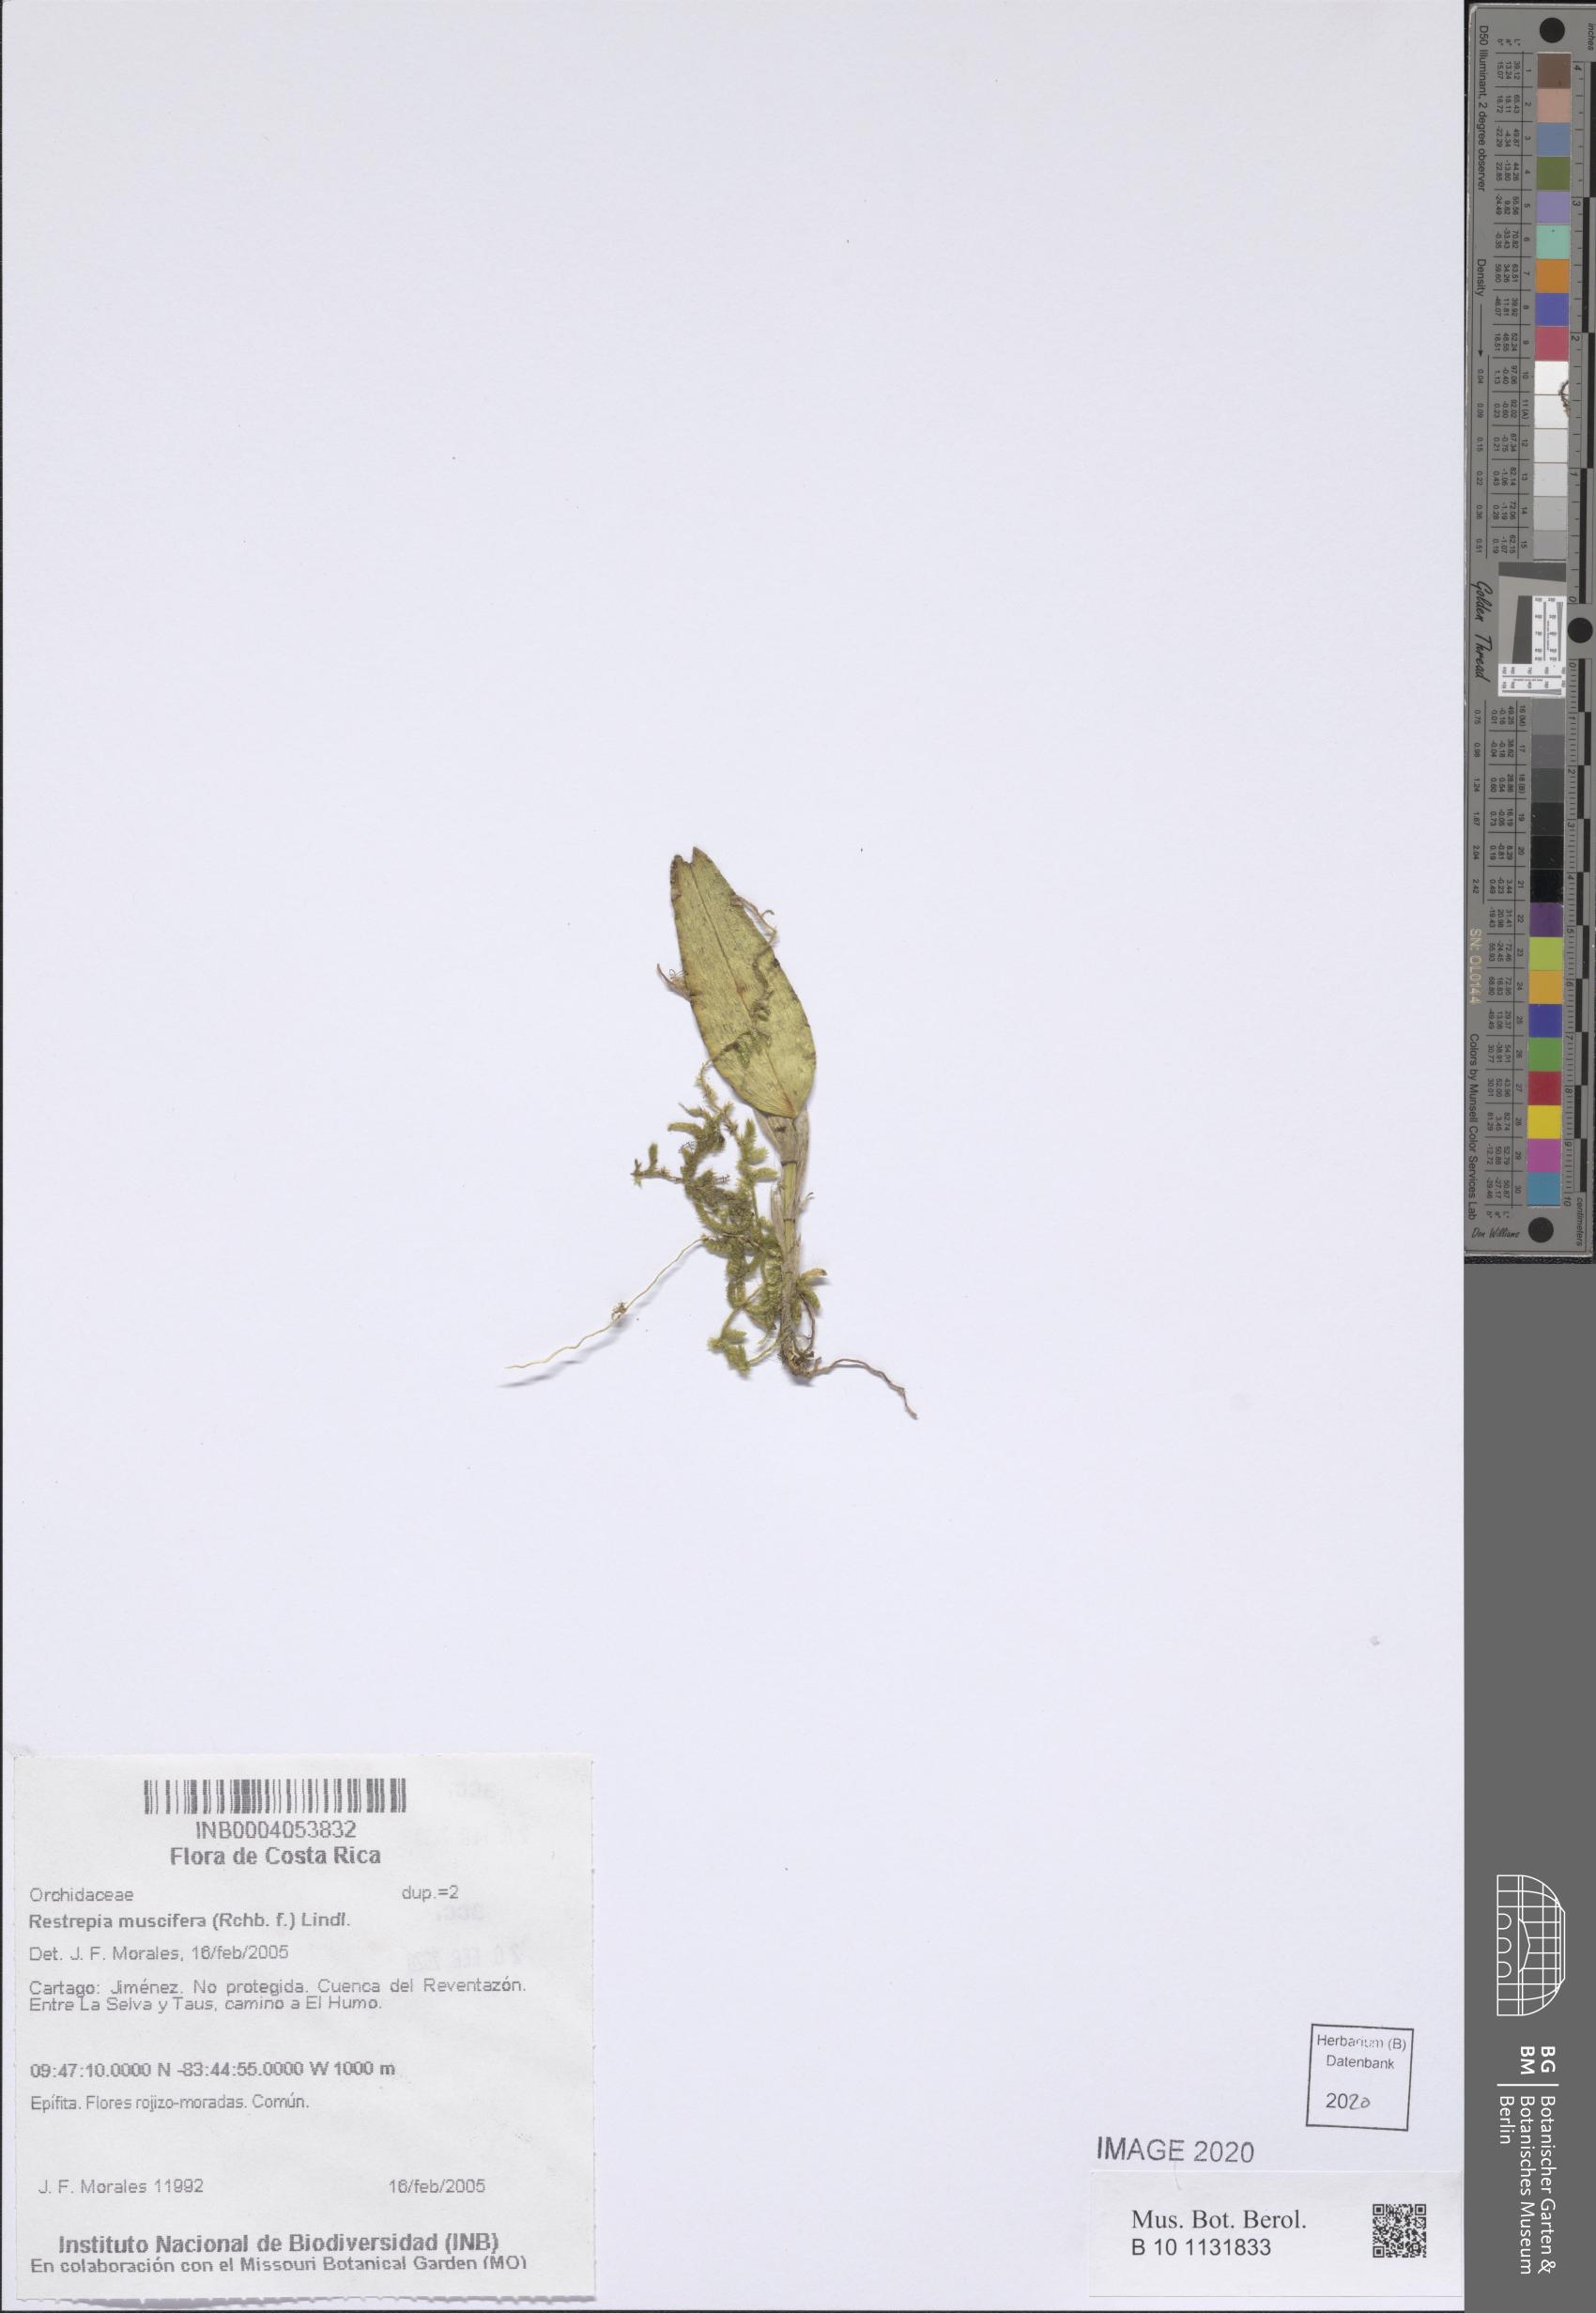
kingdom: Plantae
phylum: Tracheophyta
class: Liliopsida
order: Asparagales
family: Orchidaceae
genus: Restrepia
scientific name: Restrepia muscifera
